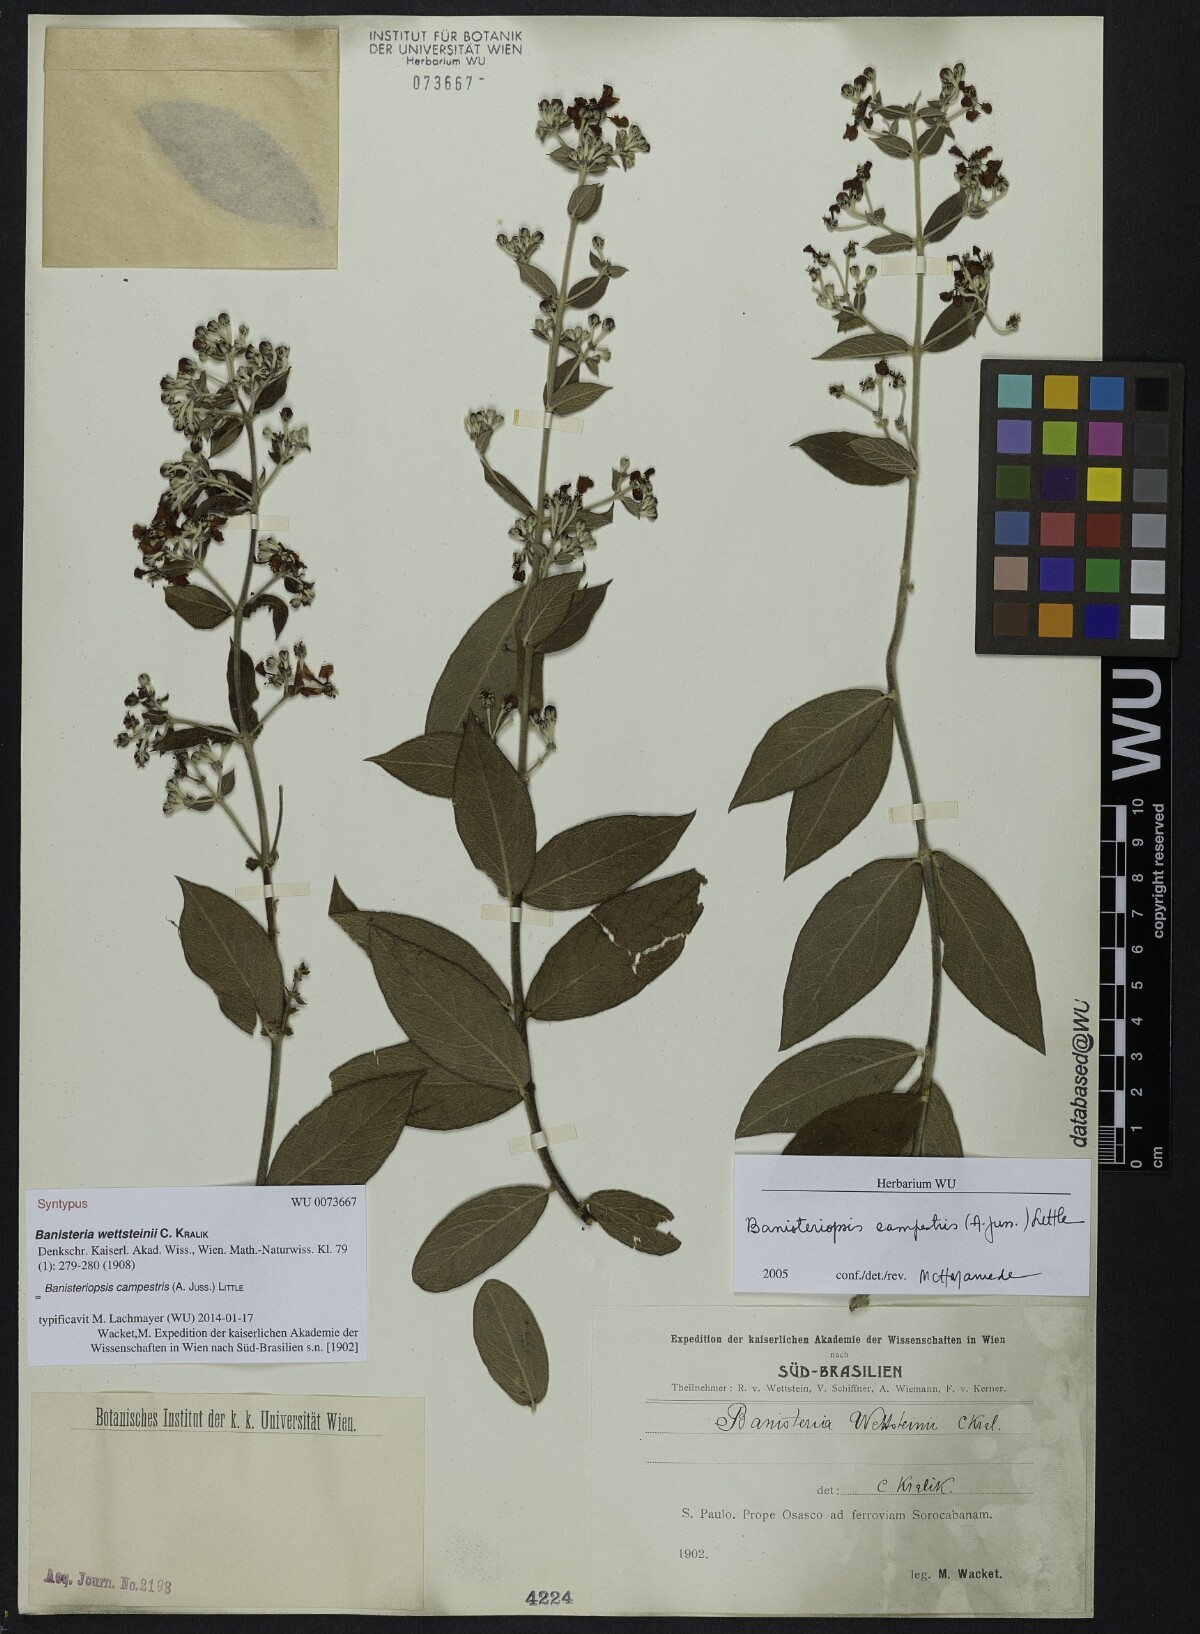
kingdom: Plantae
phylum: Tracheophyta
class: Magnoliopsida
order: Malpighiales
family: Malpighiaceae
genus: Banisteriopsis
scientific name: Banisteriopsis campestris
